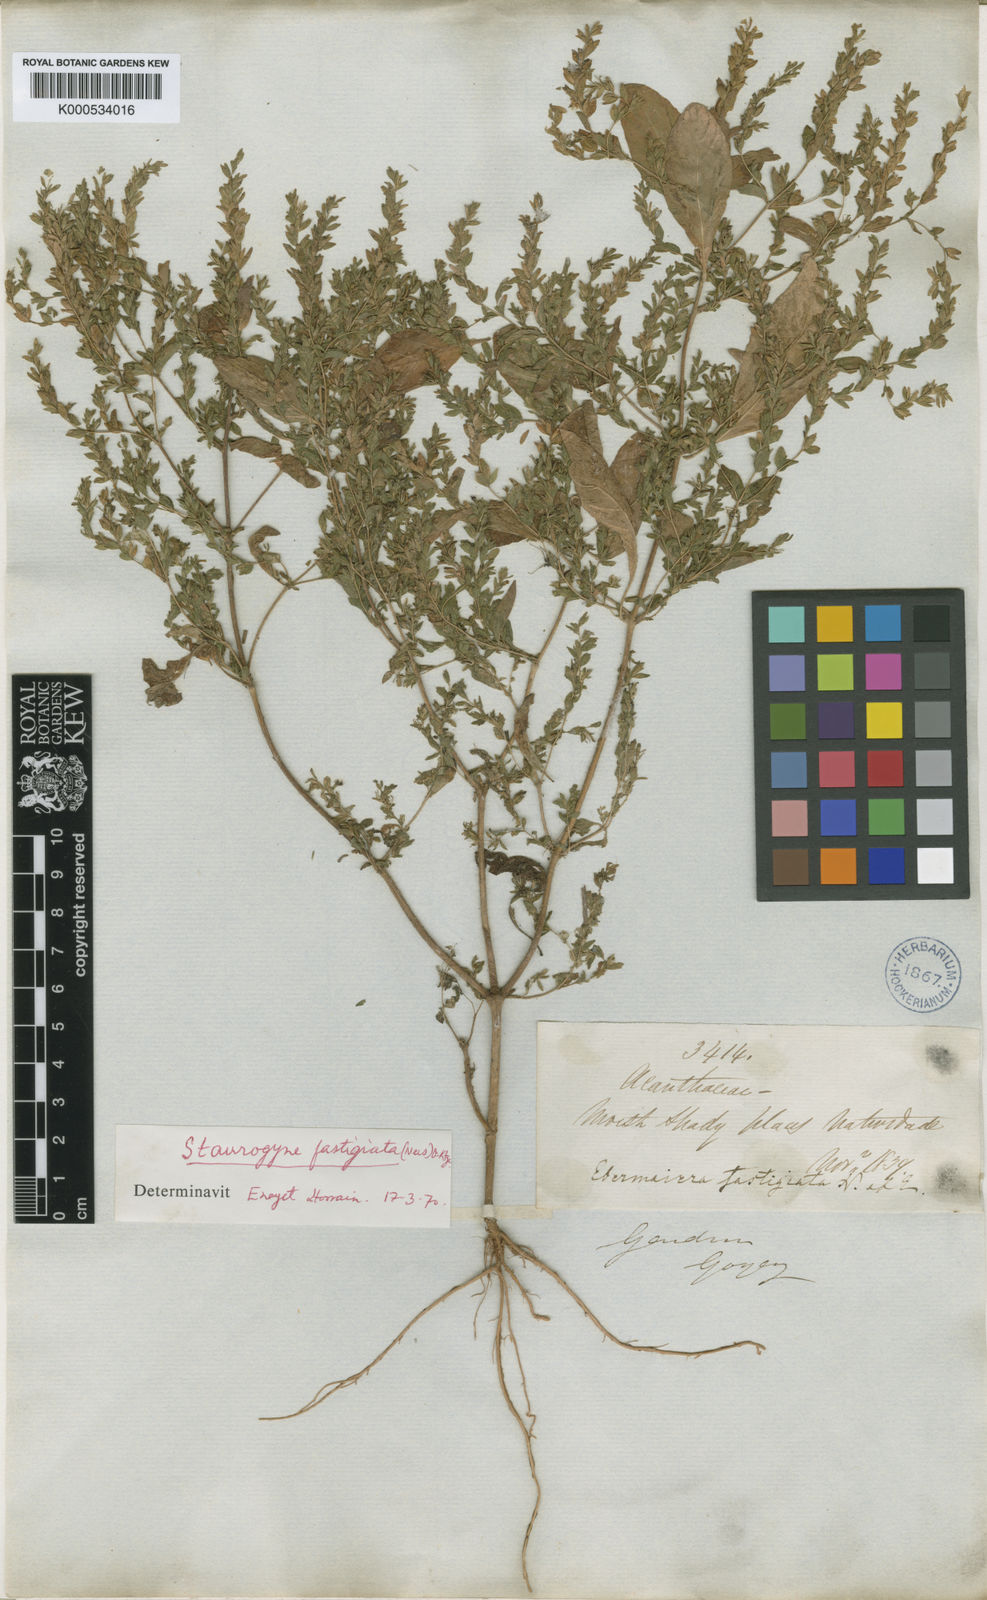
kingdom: Plantae
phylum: Tracheophyta
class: Magnoliopsida
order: Lamiales
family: Acanthaceae
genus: Staurogyne
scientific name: Staurogyne fastigiata
